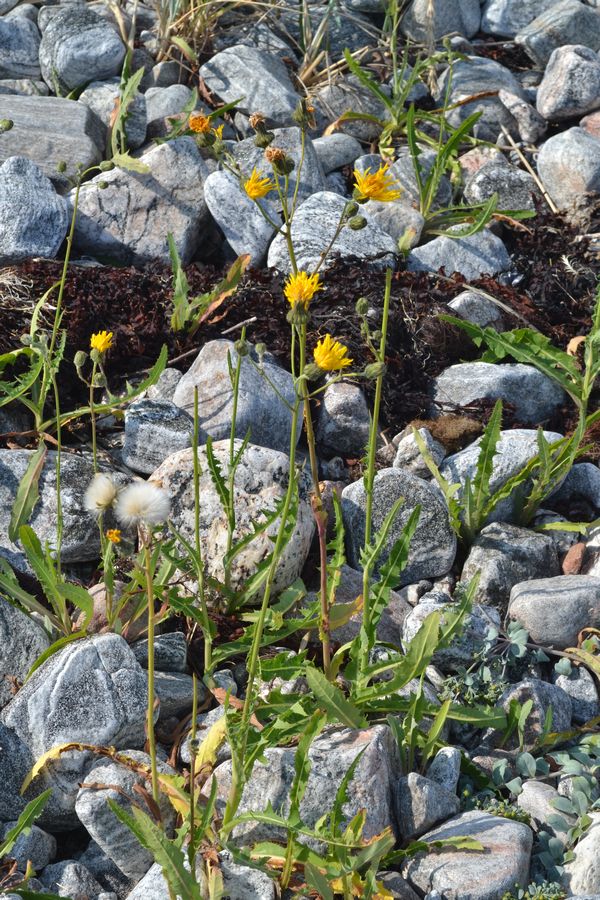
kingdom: Plantae
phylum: Tracheophyta
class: Magnoliopsida
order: Asterales
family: Asteraceae
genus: Sonchus
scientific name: Sonchus arvensis
